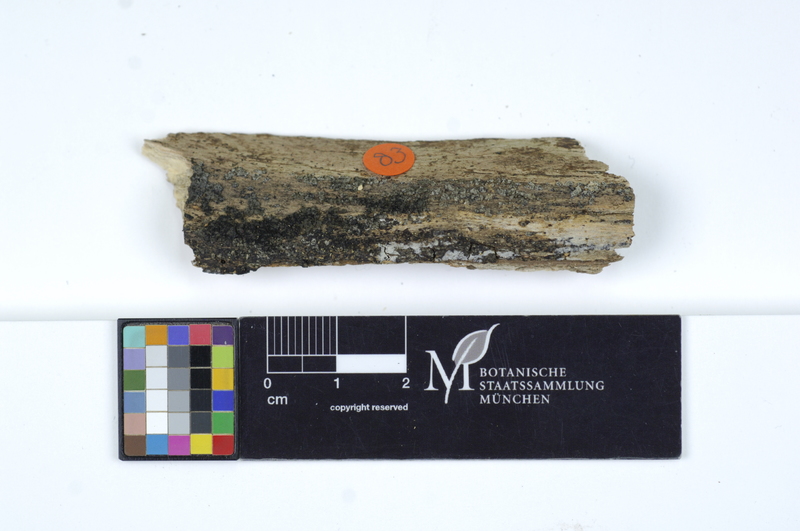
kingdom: Plantae
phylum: Tracheophyta
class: Magnoliopsida
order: Fagales
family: Fagaceae
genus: Fagus
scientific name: Fagus sylvatica
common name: Beech
